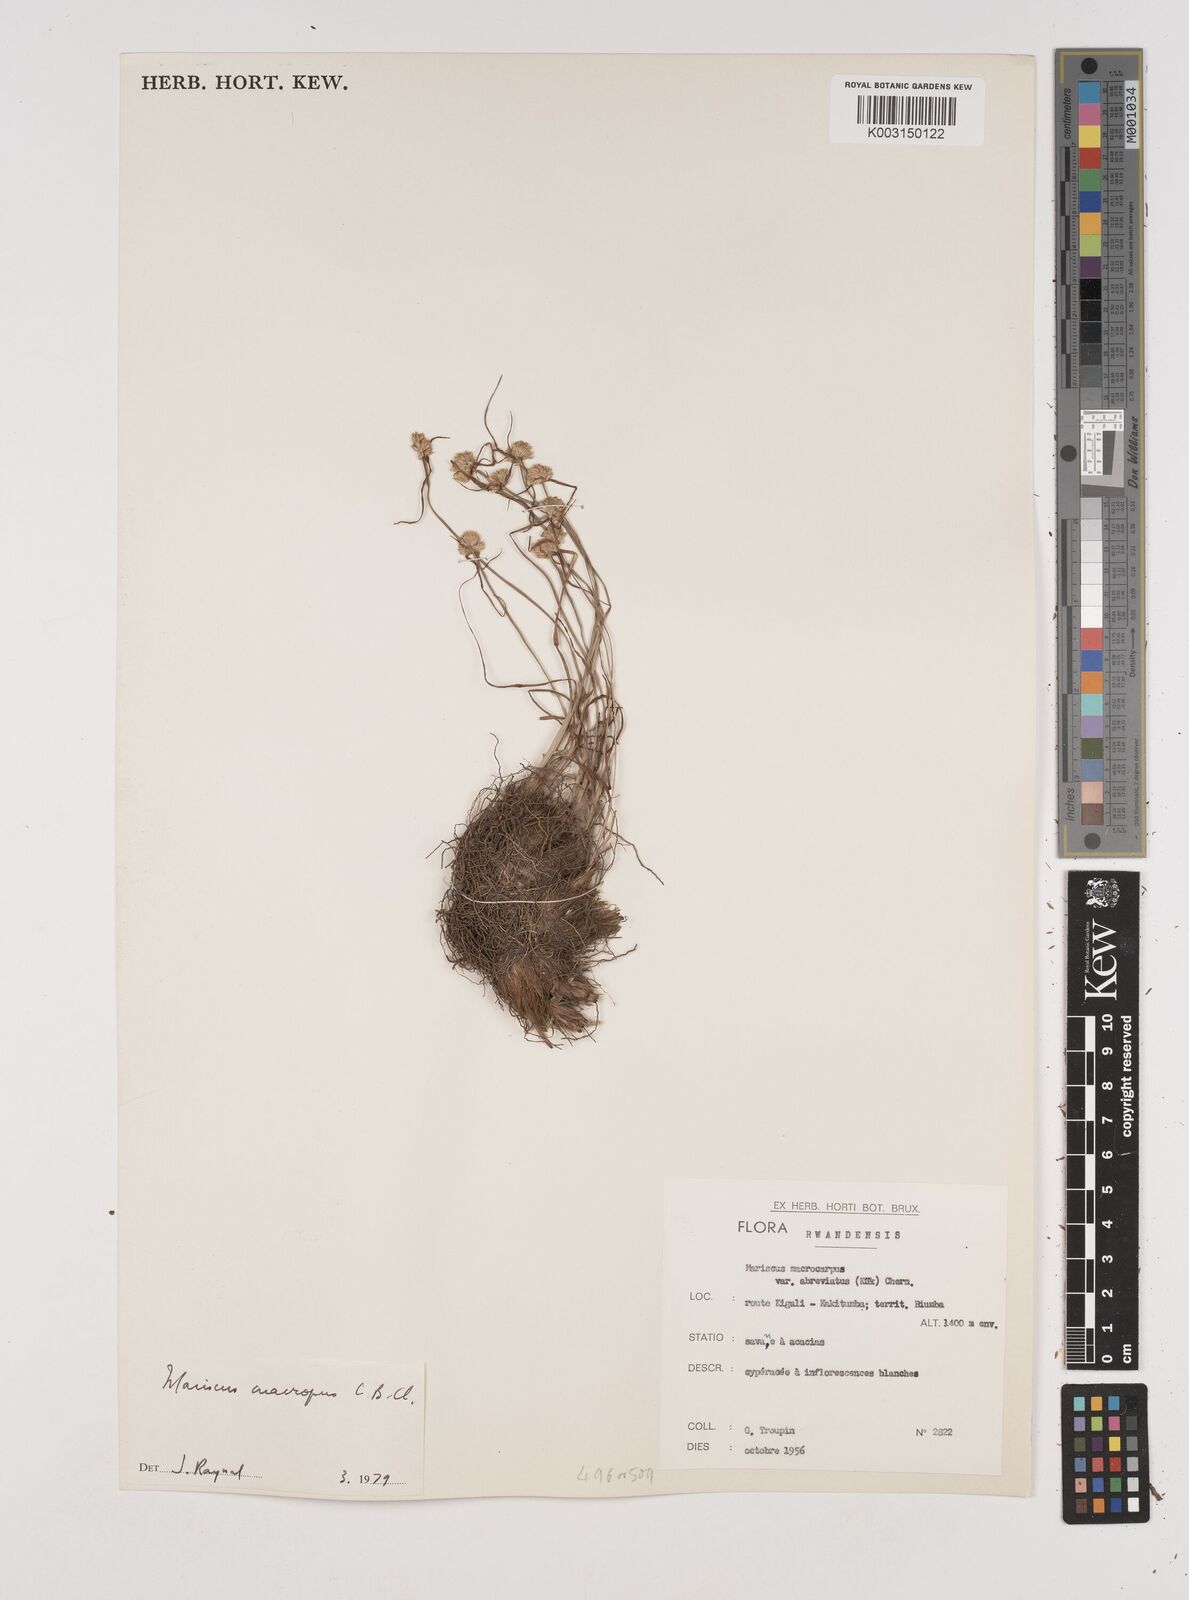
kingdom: Plantae
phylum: Tracheophyta
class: Liliopsida
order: Poales
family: Cyperaceae
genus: Cyperus
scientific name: Cyperus mollipes
